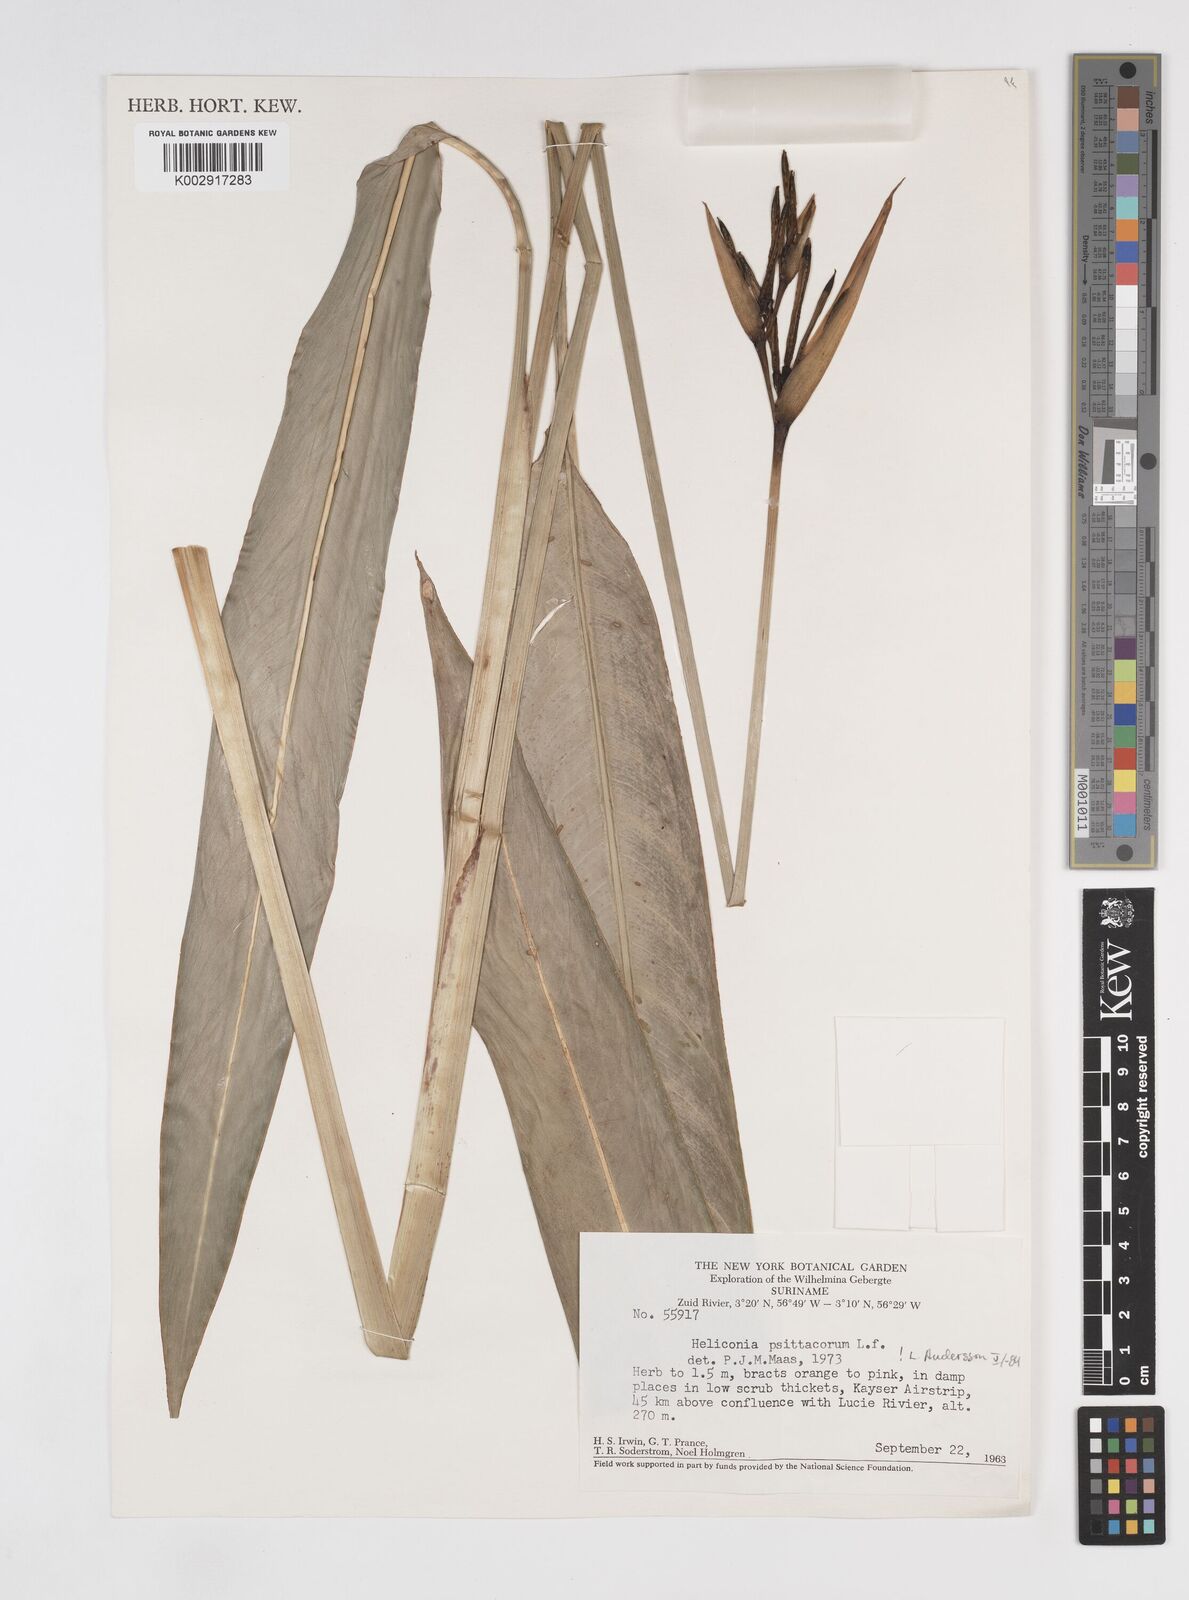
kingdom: Plantae
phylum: Tracheophyta
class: Liliopsida
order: Zingiberales
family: Heliconiaceae
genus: Heliconia
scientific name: Heliconia psittacorum
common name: Parrot's-flower
